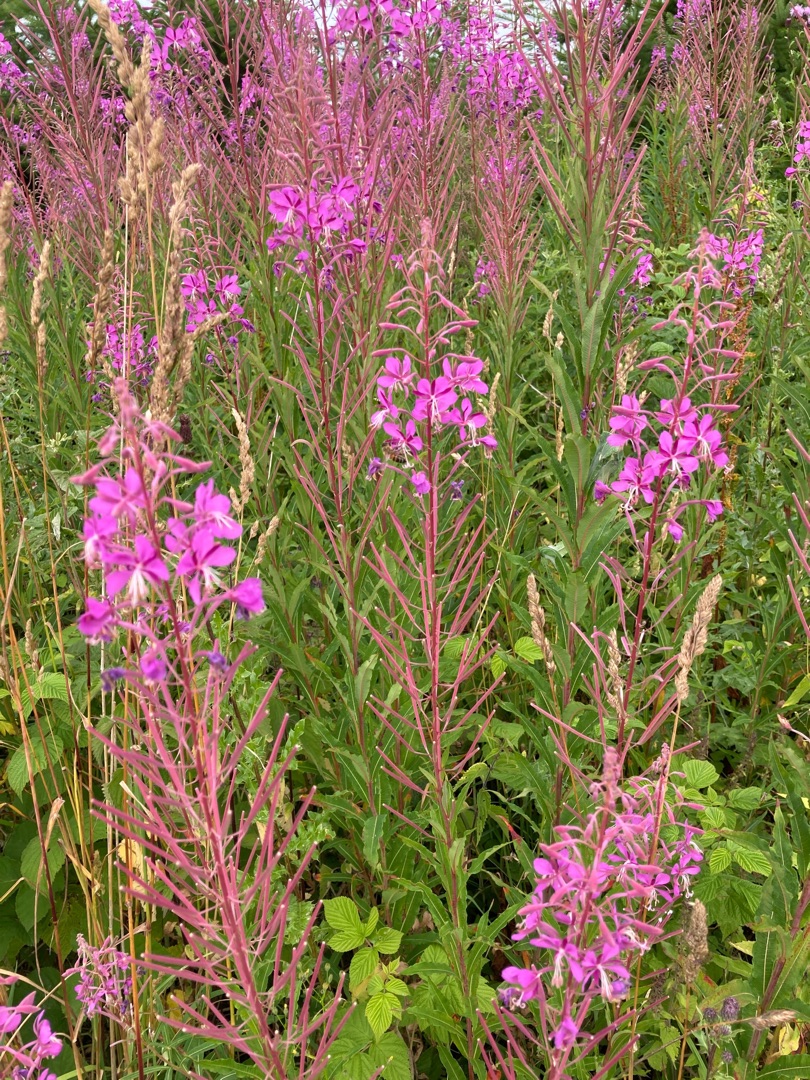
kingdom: Plantae
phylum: Tracheophyta
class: Magnoliopsida
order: Myrtales
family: Onagraceae
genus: Chamaenerion
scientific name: Chamaenerion angustifolium
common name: Gederams
